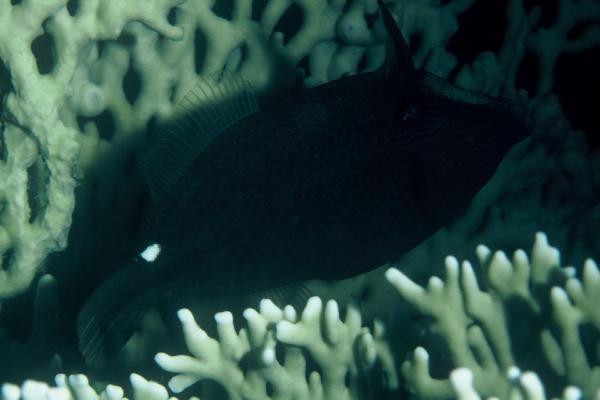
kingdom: Animalia
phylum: Chordata
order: Tetraodontiformes
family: Monacanthidae
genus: Cantherhines
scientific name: Cantherhines pardalis
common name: Honeycomb filefish
